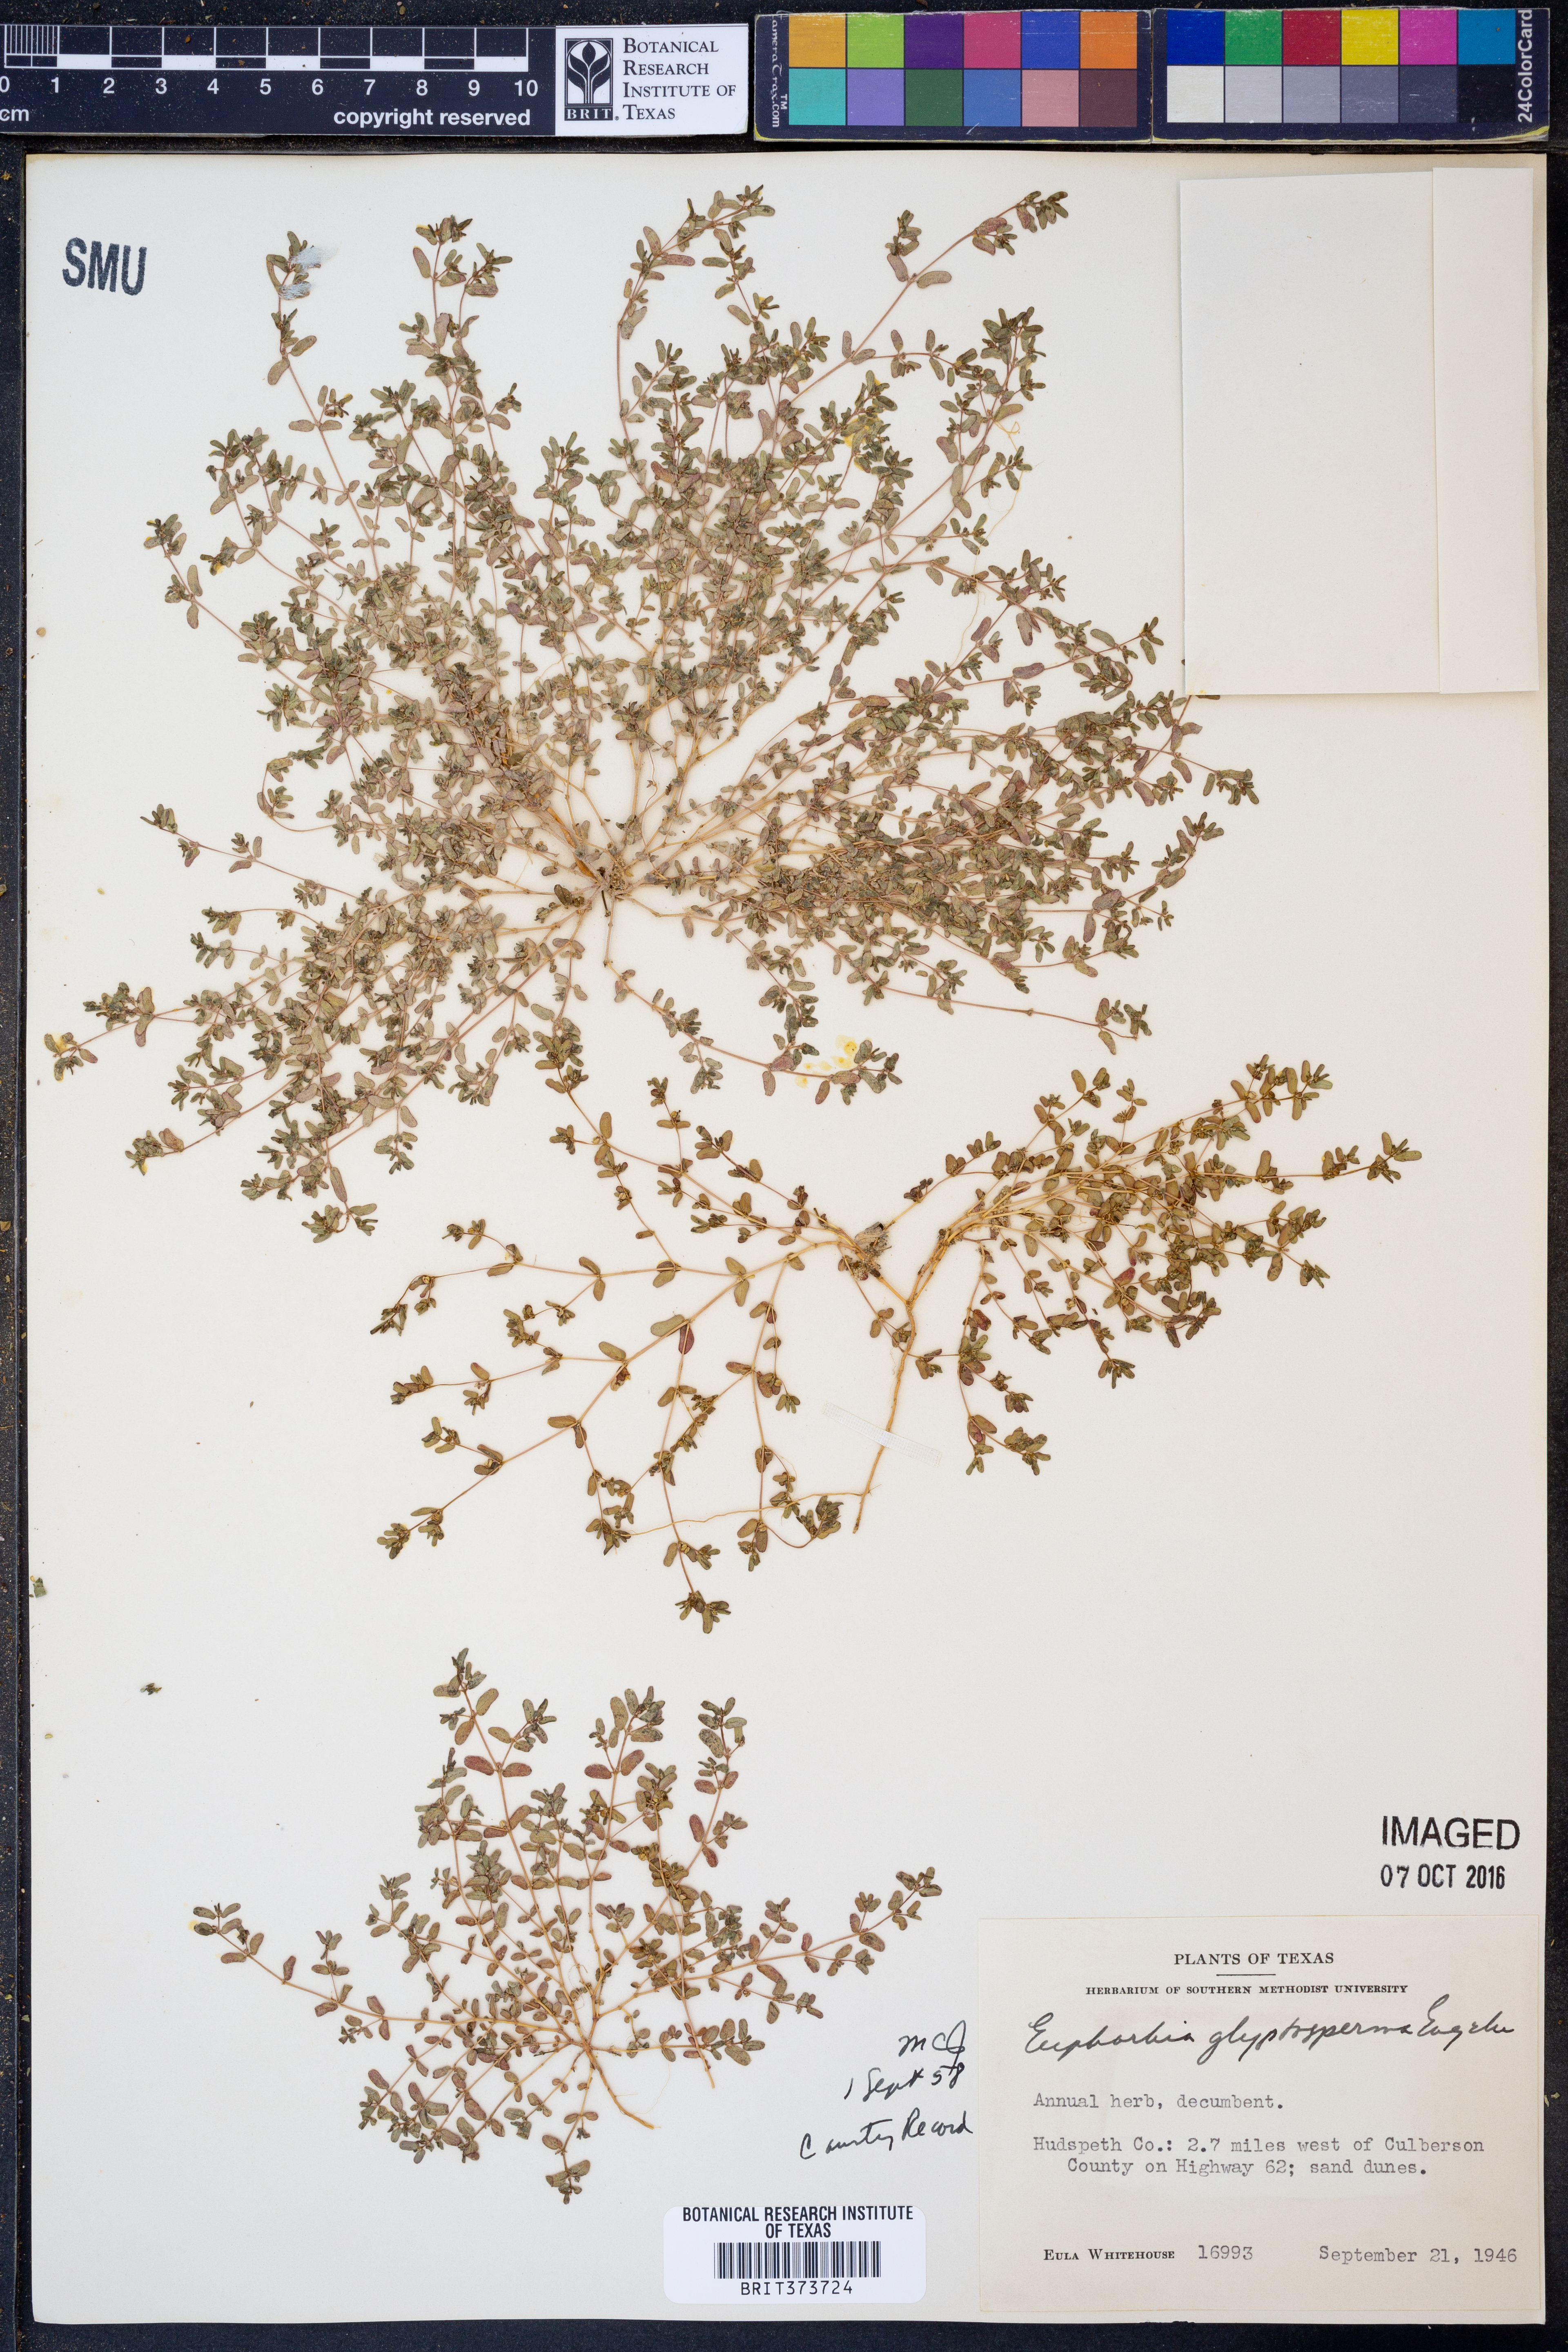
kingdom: Plantae
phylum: Tracheophyta
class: Magnoliopsida
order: Malpighiales
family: Euphorbiaceae
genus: Euphorbia
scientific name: Euphorbia glyptosperma
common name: Corrugate-seeded spurge
